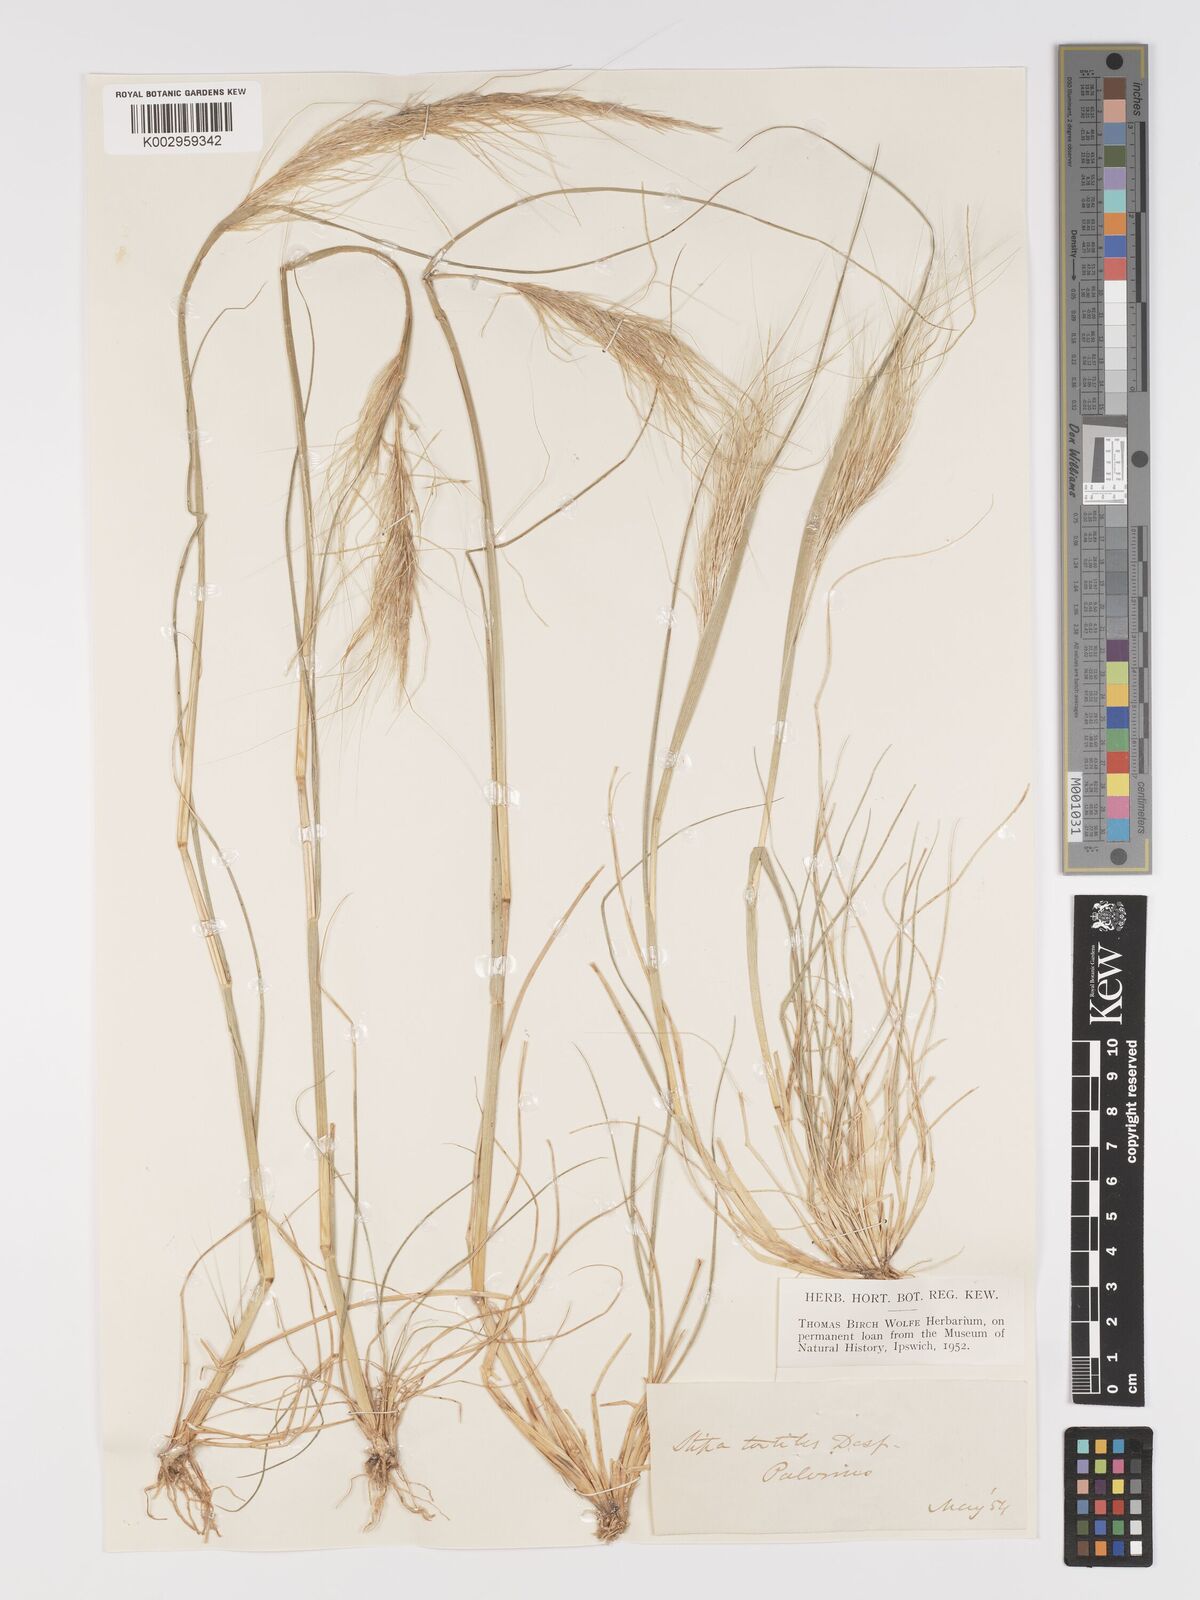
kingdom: Plantae
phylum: Tracheophyta
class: Liliopsida
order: Poales
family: Poaceae
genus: Stipellula
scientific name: Stipellula capensis
